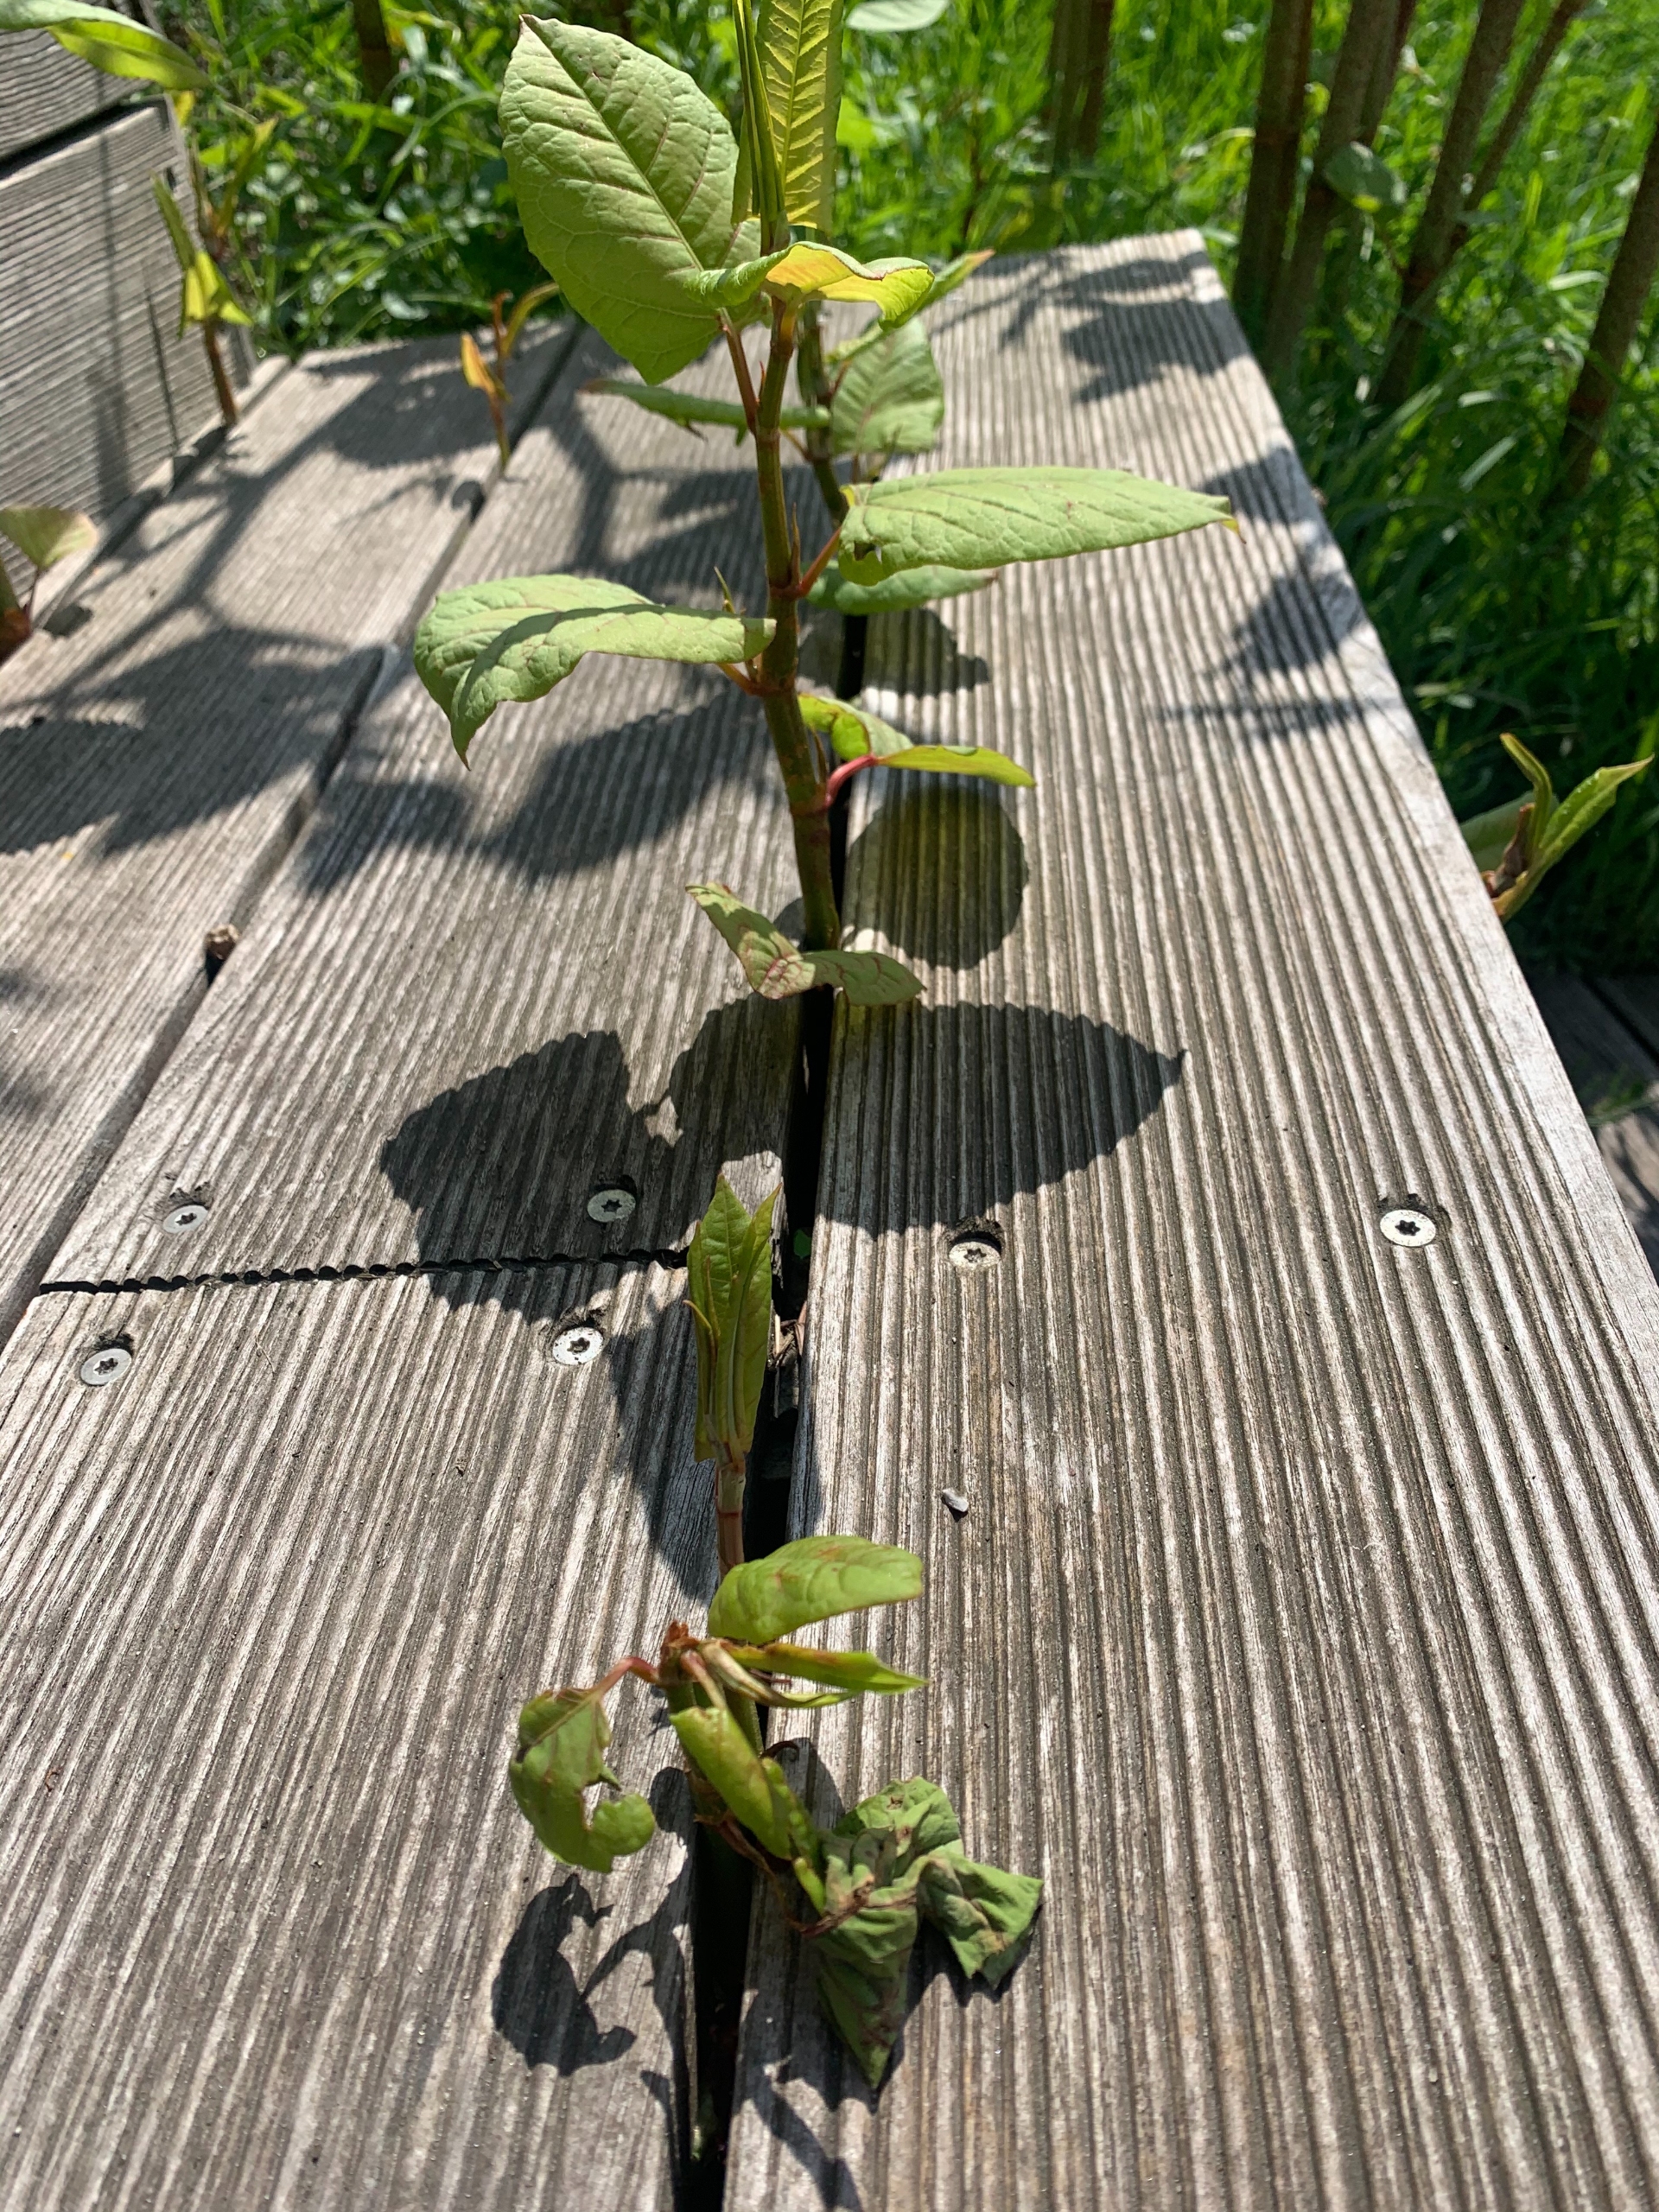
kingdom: Plantae
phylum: Tracheophyta
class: Magnoliopsida
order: Caryophyllales
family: Polygonaceae
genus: Reynoutria
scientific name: Reynoutria japonica
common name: Japan-pileurt
